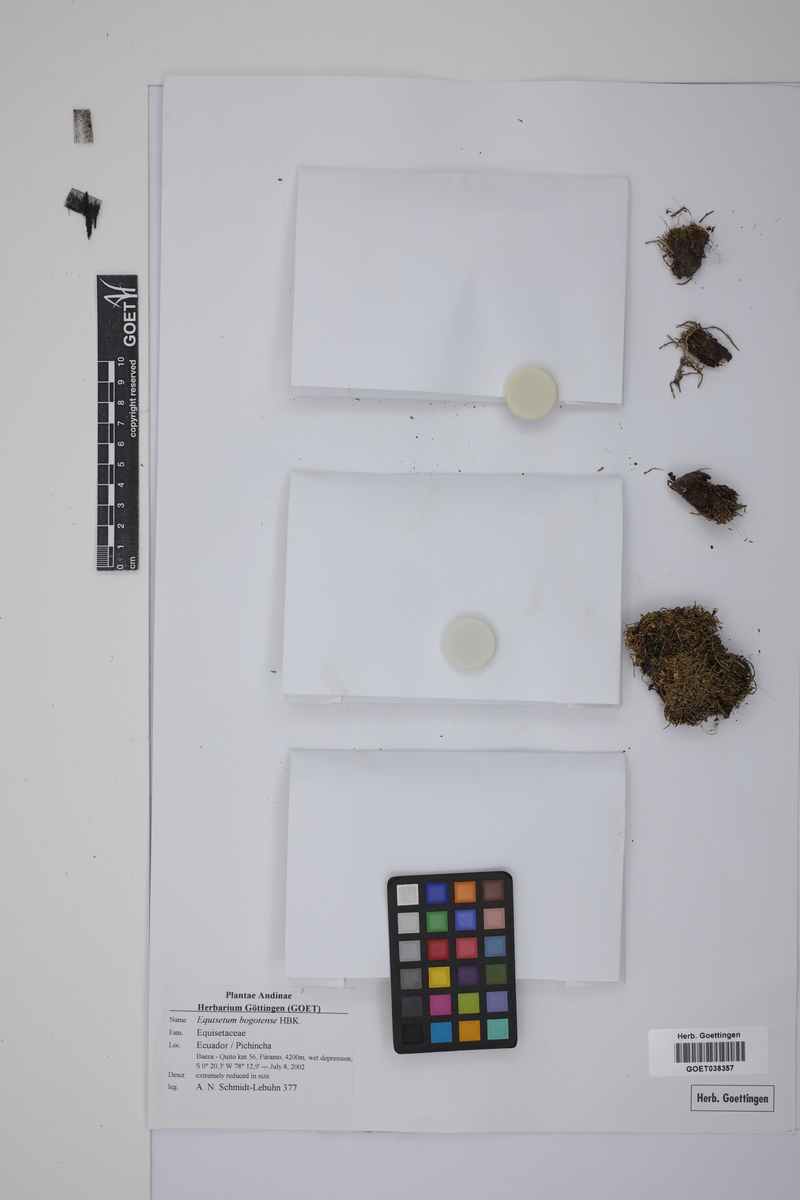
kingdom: Plantae
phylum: Tracheophyta
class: Polypodiopsida
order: Equisetales
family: Equisetaceae
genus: Equisetum
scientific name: Equisetum bogotense
